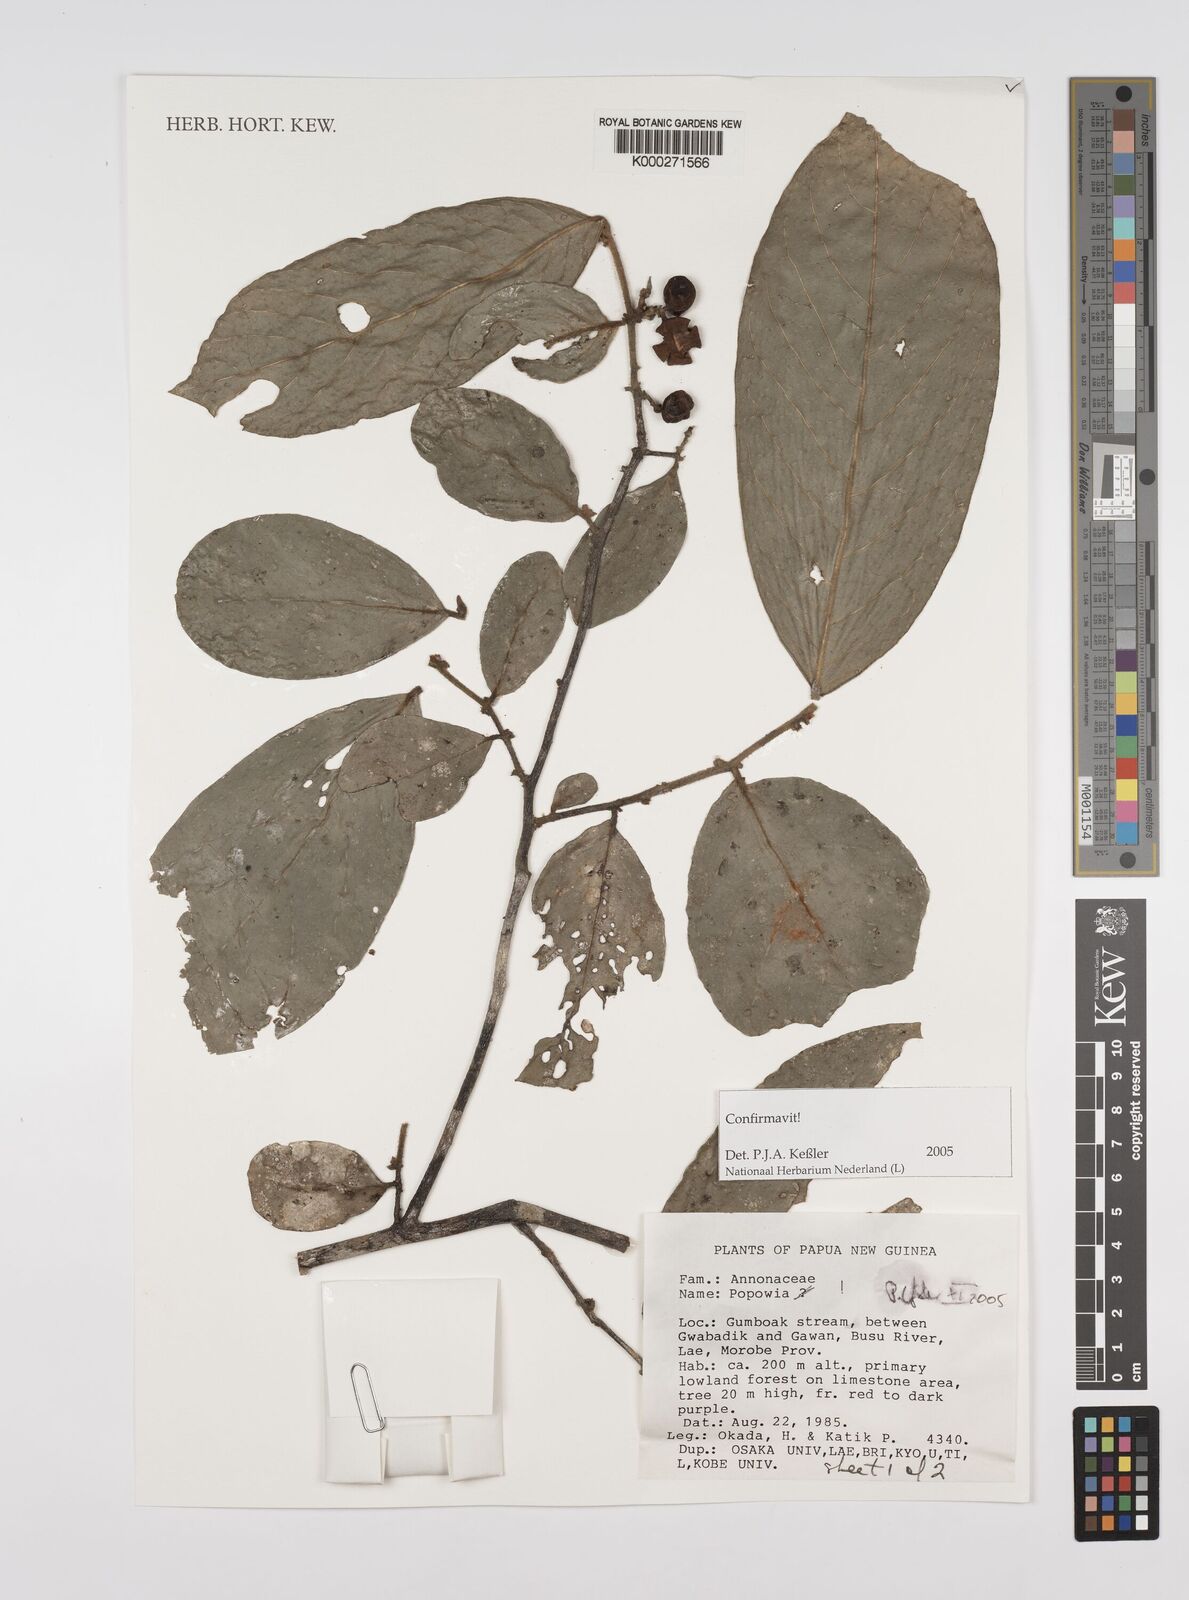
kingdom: Plantae
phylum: Tracheophyta
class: Magnoliopsida
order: Magnoliales
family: Annonaceae
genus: Popowia
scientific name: Popowia
